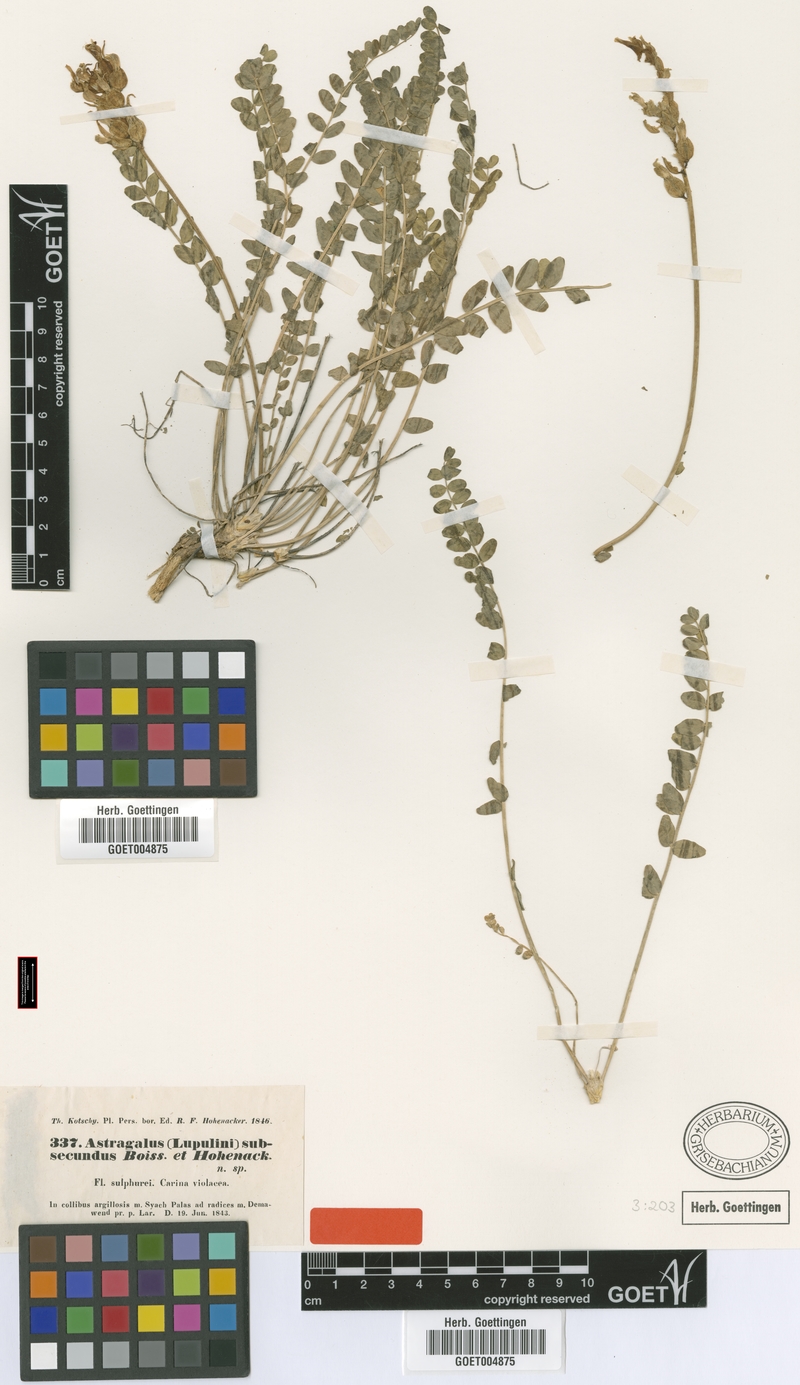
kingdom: Plantae
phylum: Tracheophyta
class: Magnoliopsida
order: Fabales
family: Fabaceae
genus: Astragalus
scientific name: Astragalus subsecundus
